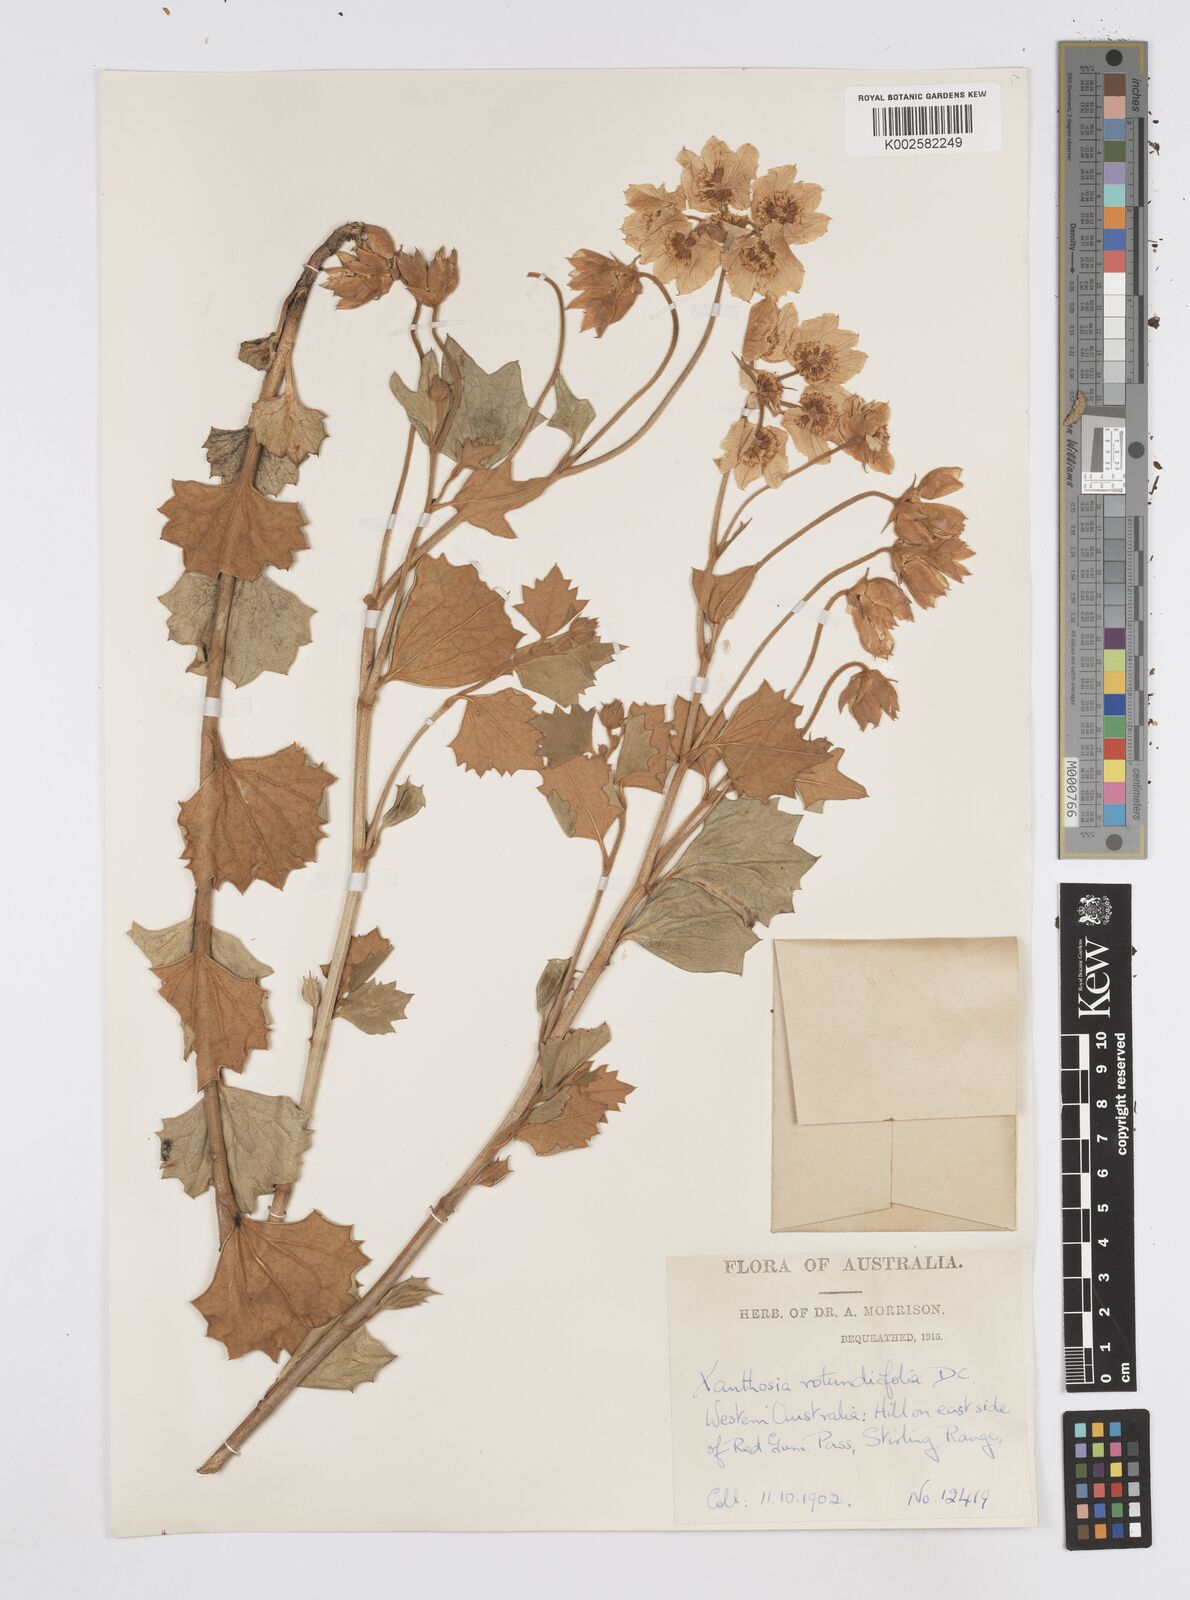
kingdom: Plantae
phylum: Tracheophyta
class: Magnoliopsida
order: Apiales
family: Apiaceae
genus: Xanthosia
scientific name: Xanthosia rotundifolia
